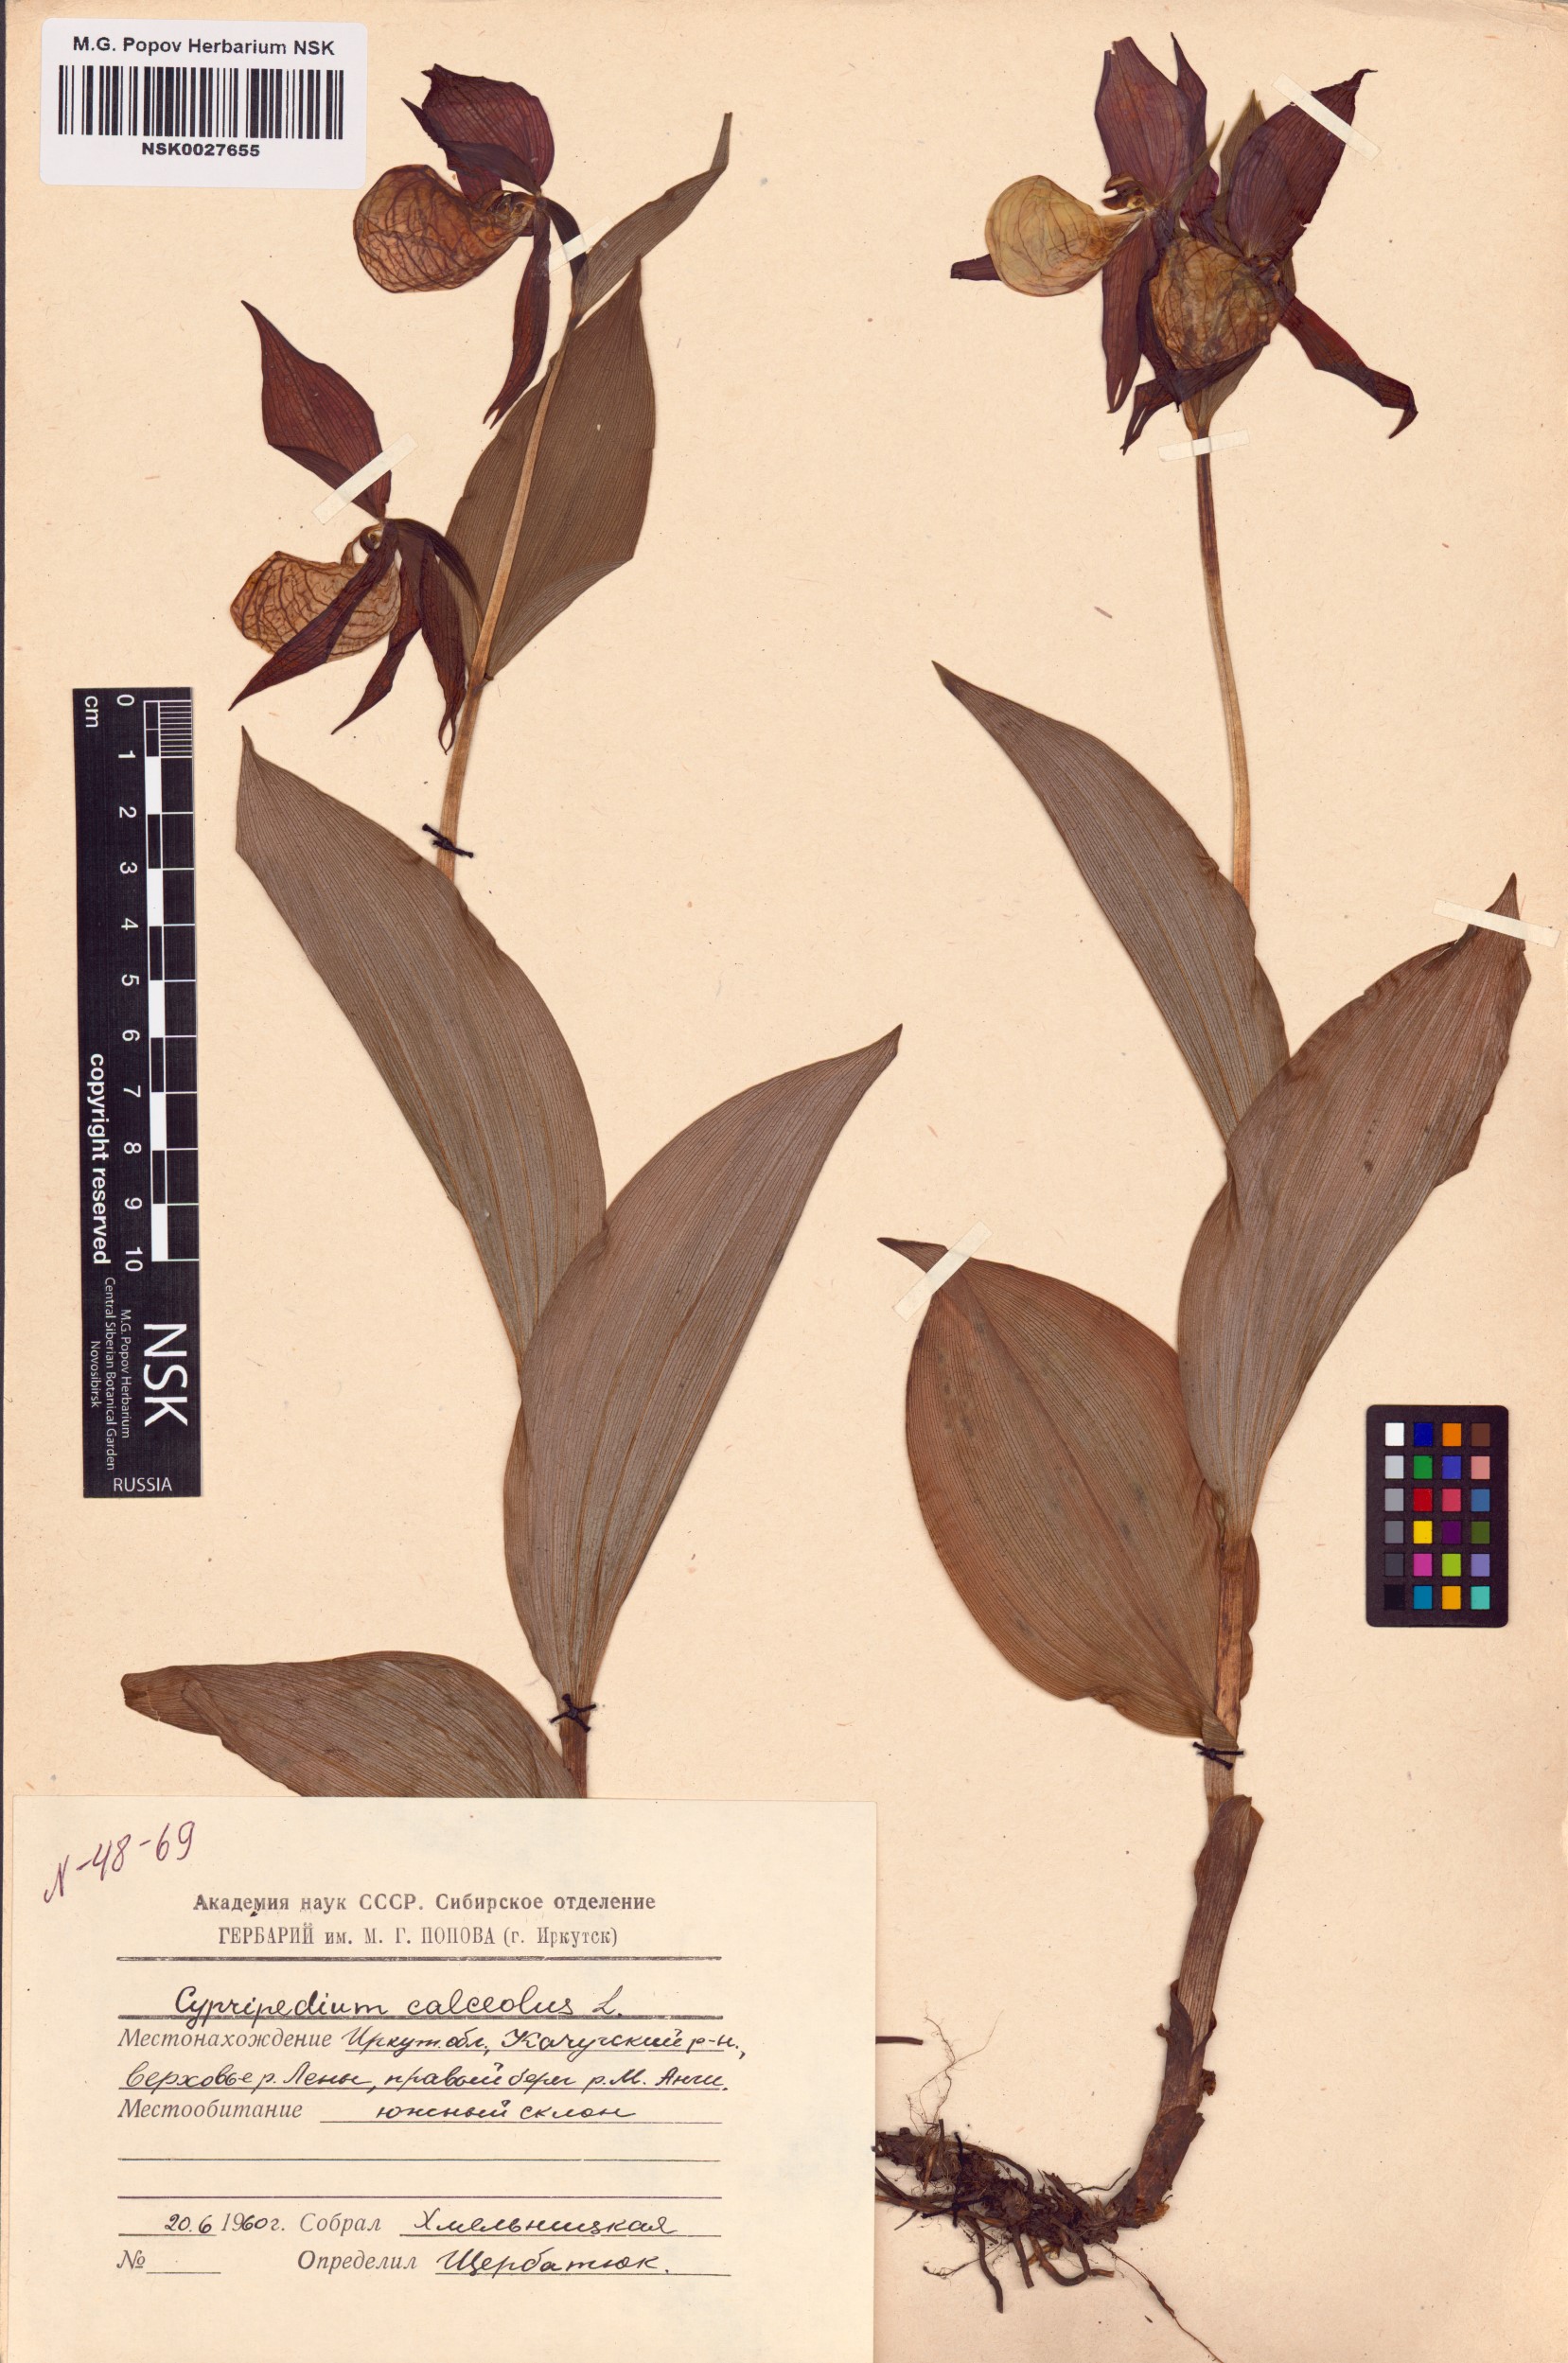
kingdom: Plantae
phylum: Tracheophyta
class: Liliopsida
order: Asparagales
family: Orchidaceae
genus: Cypripedium
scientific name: Cypripedium calceolus
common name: Lady's-slipper
